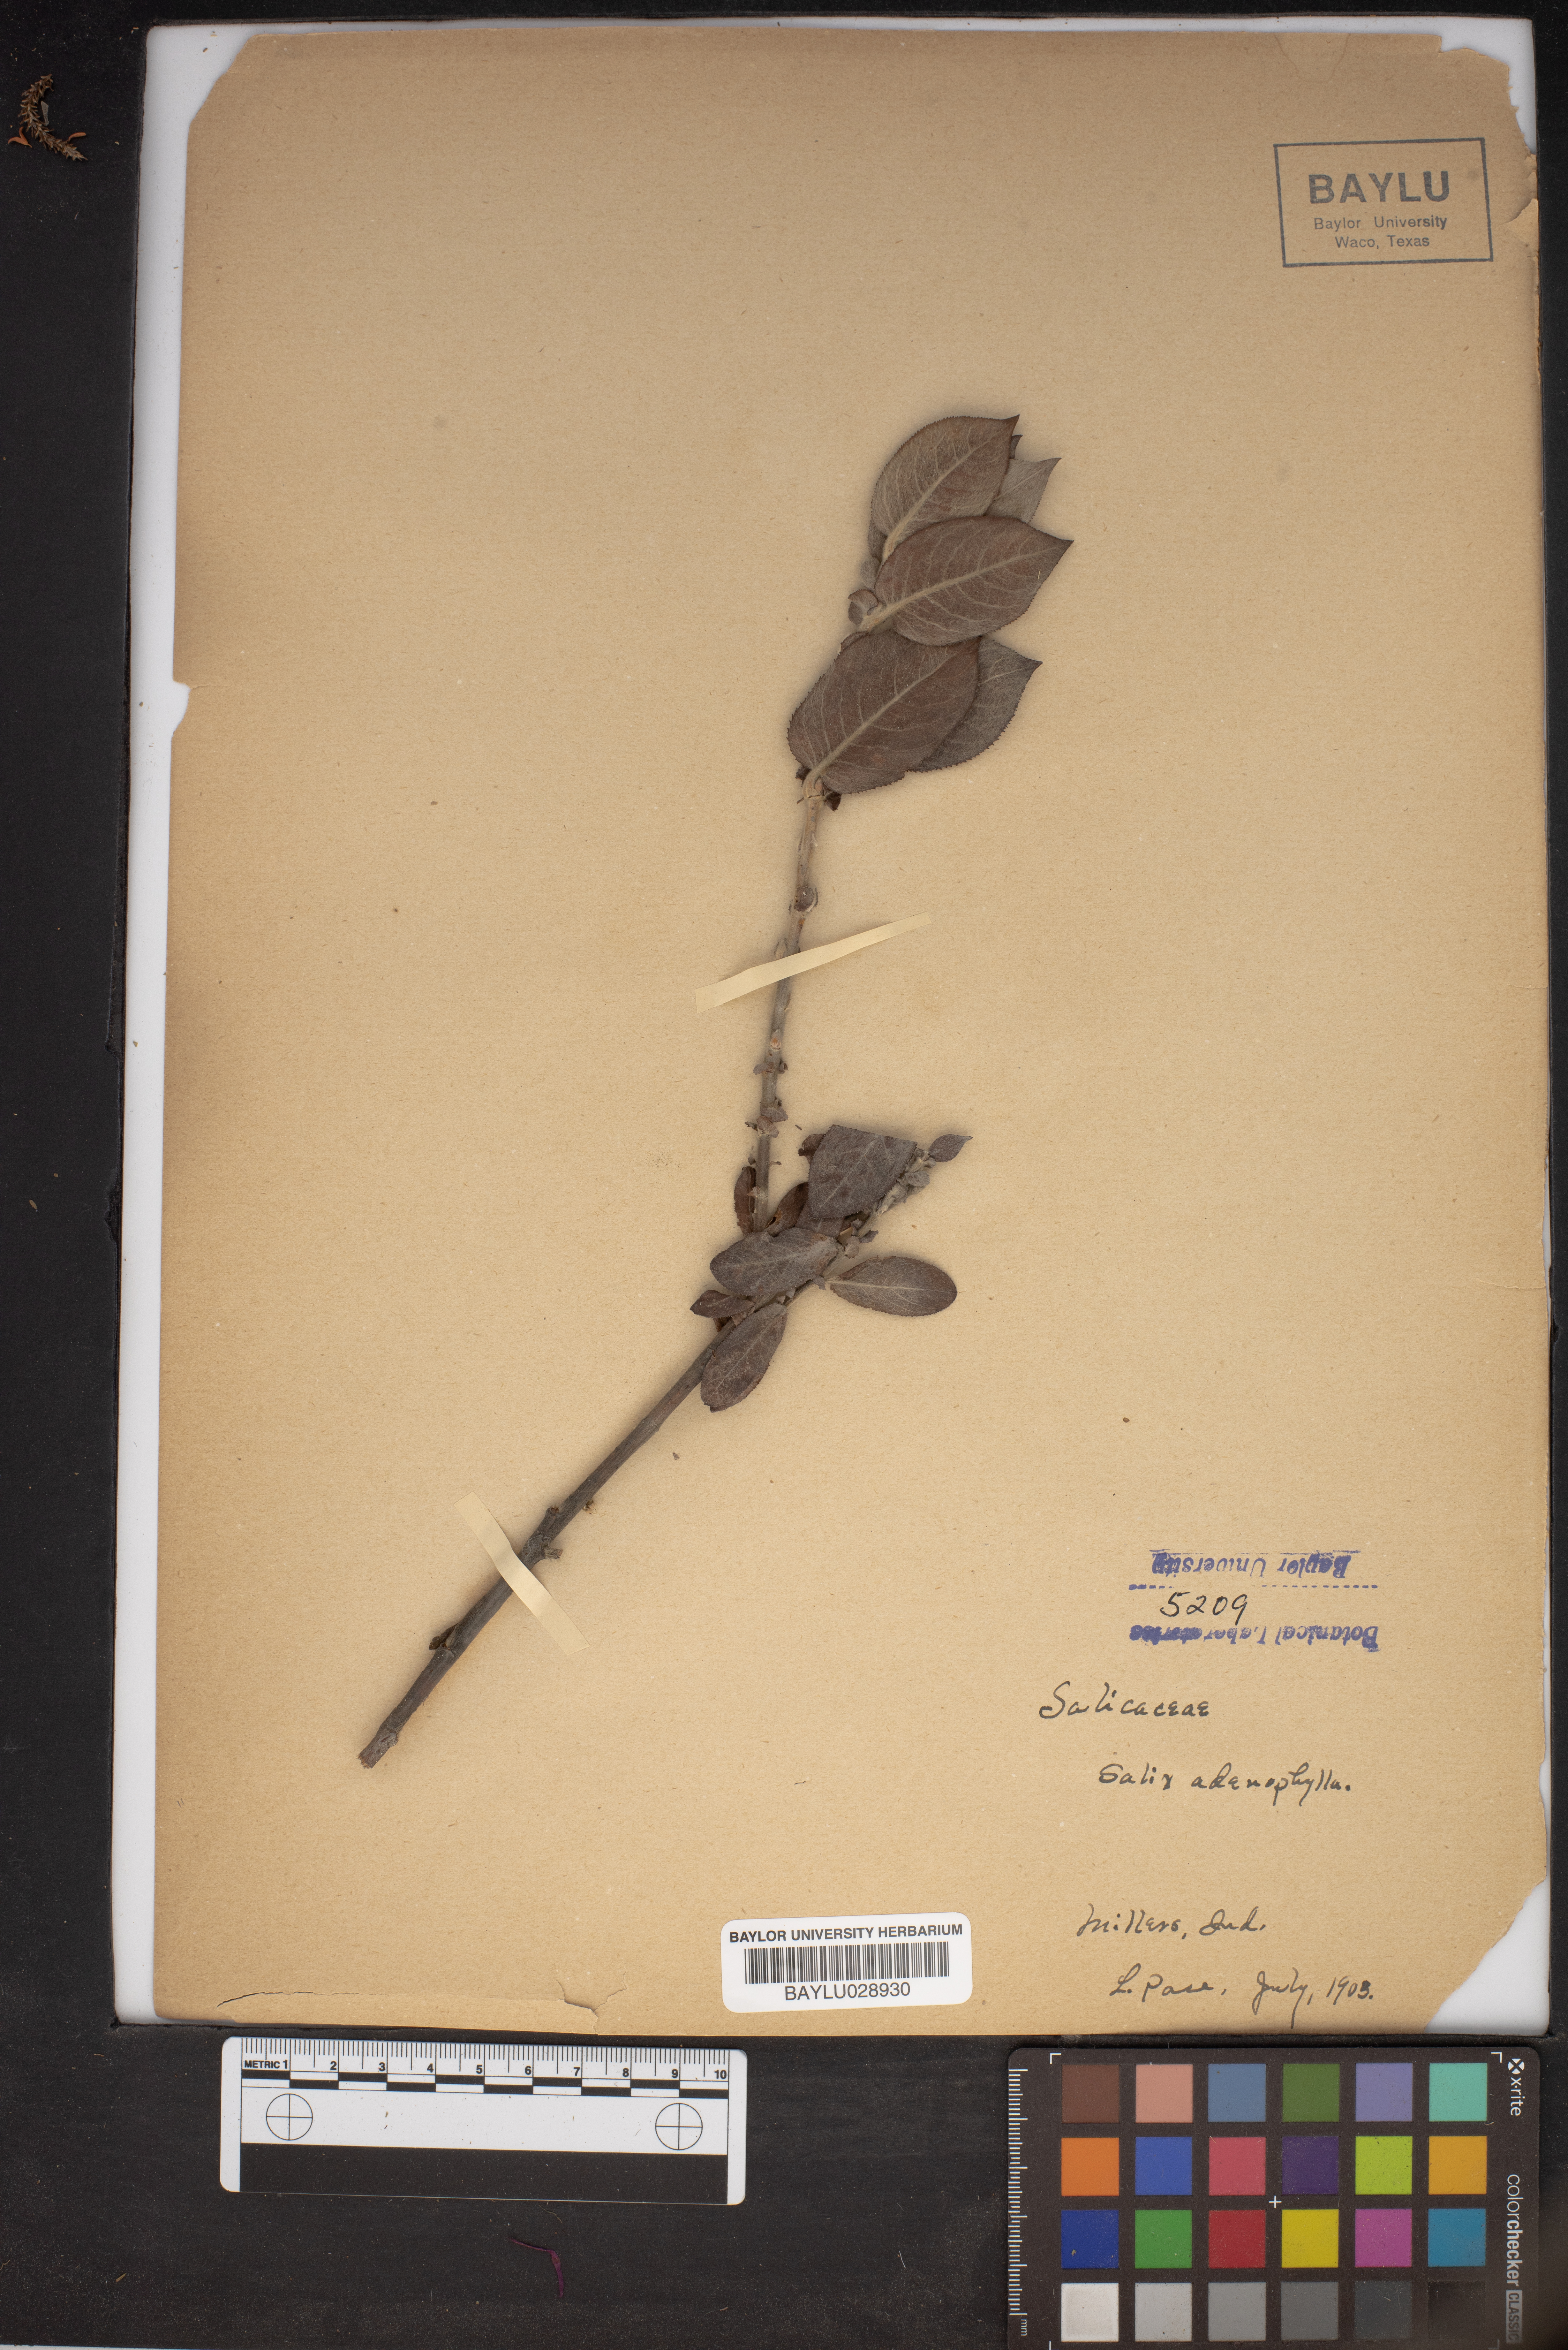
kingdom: Plantae
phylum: Tracheophyta
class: Magnoliopsida
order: Malpighiales
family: Salicaceae
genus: Salix
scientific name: Salix cordata
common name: Heart-leaf willow
